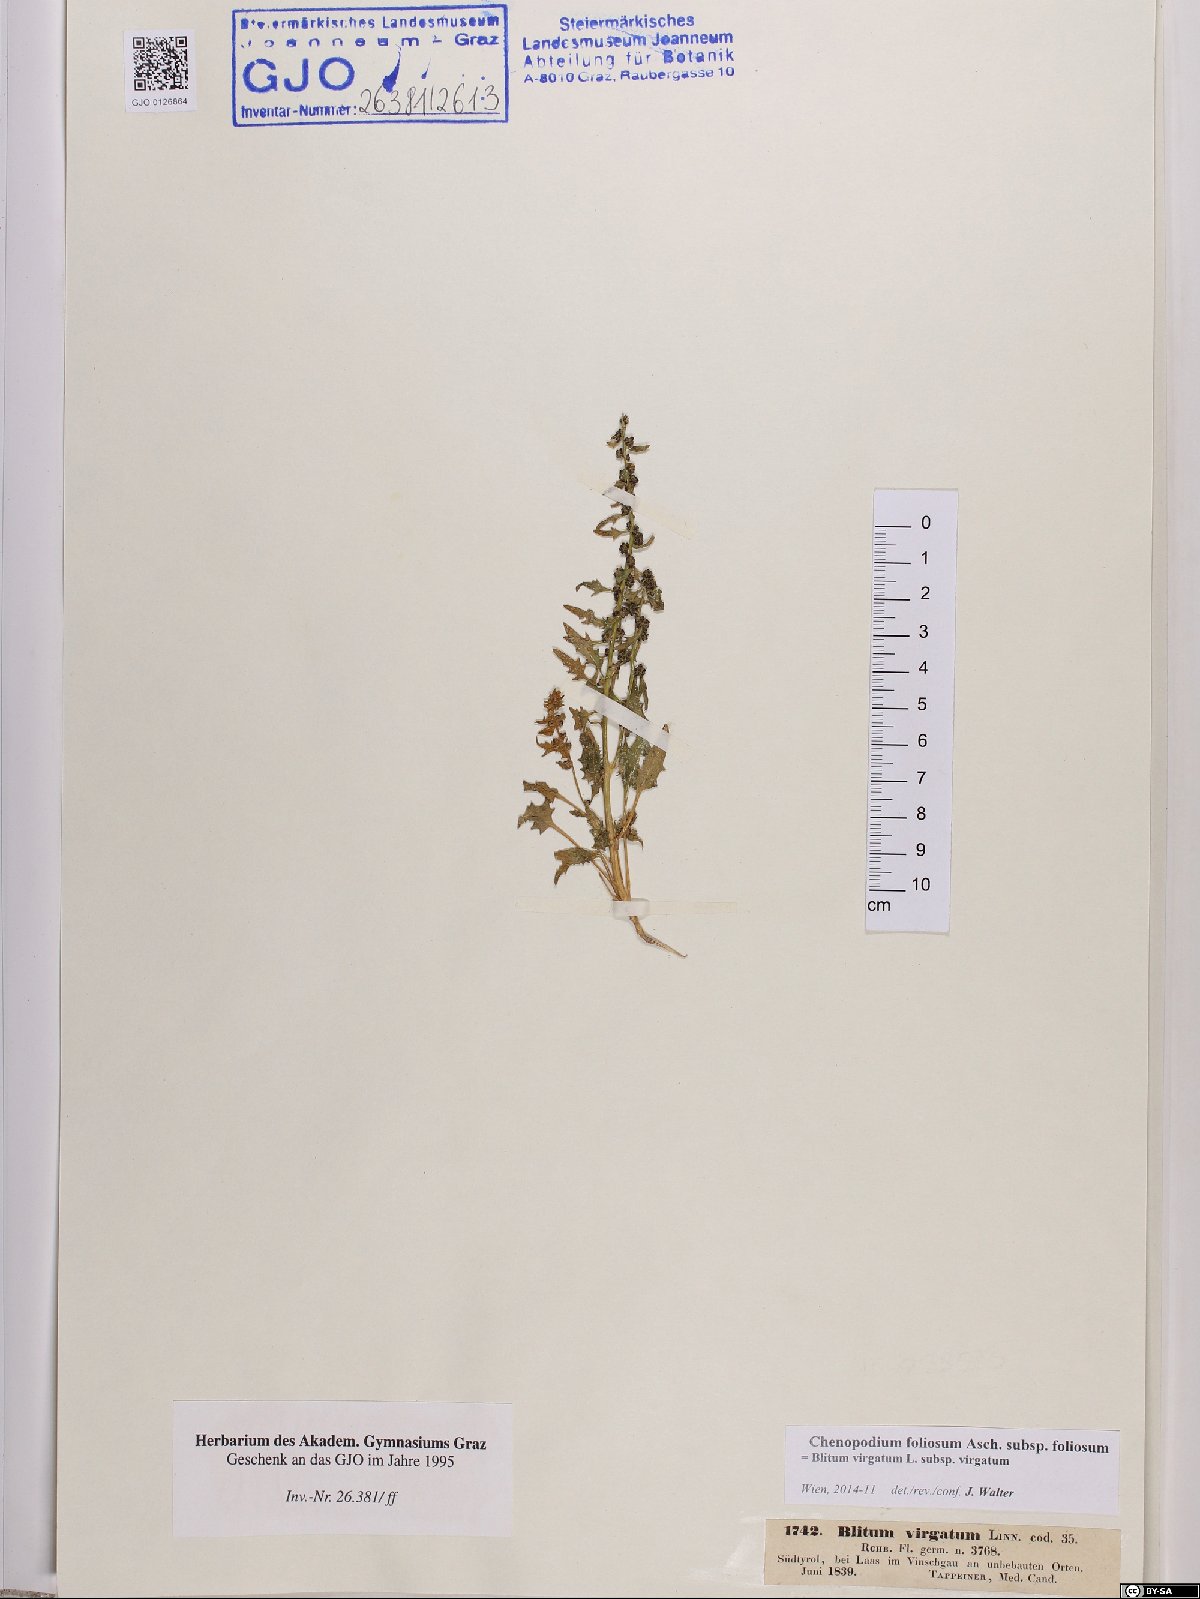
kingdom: Plantae
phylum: Tracheophyta
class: Magnoliopsida
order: Caryophyllales
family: Amaranthaceae
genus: Blitum
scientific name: Blitum virgatum
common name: Strawberry goosefoot
